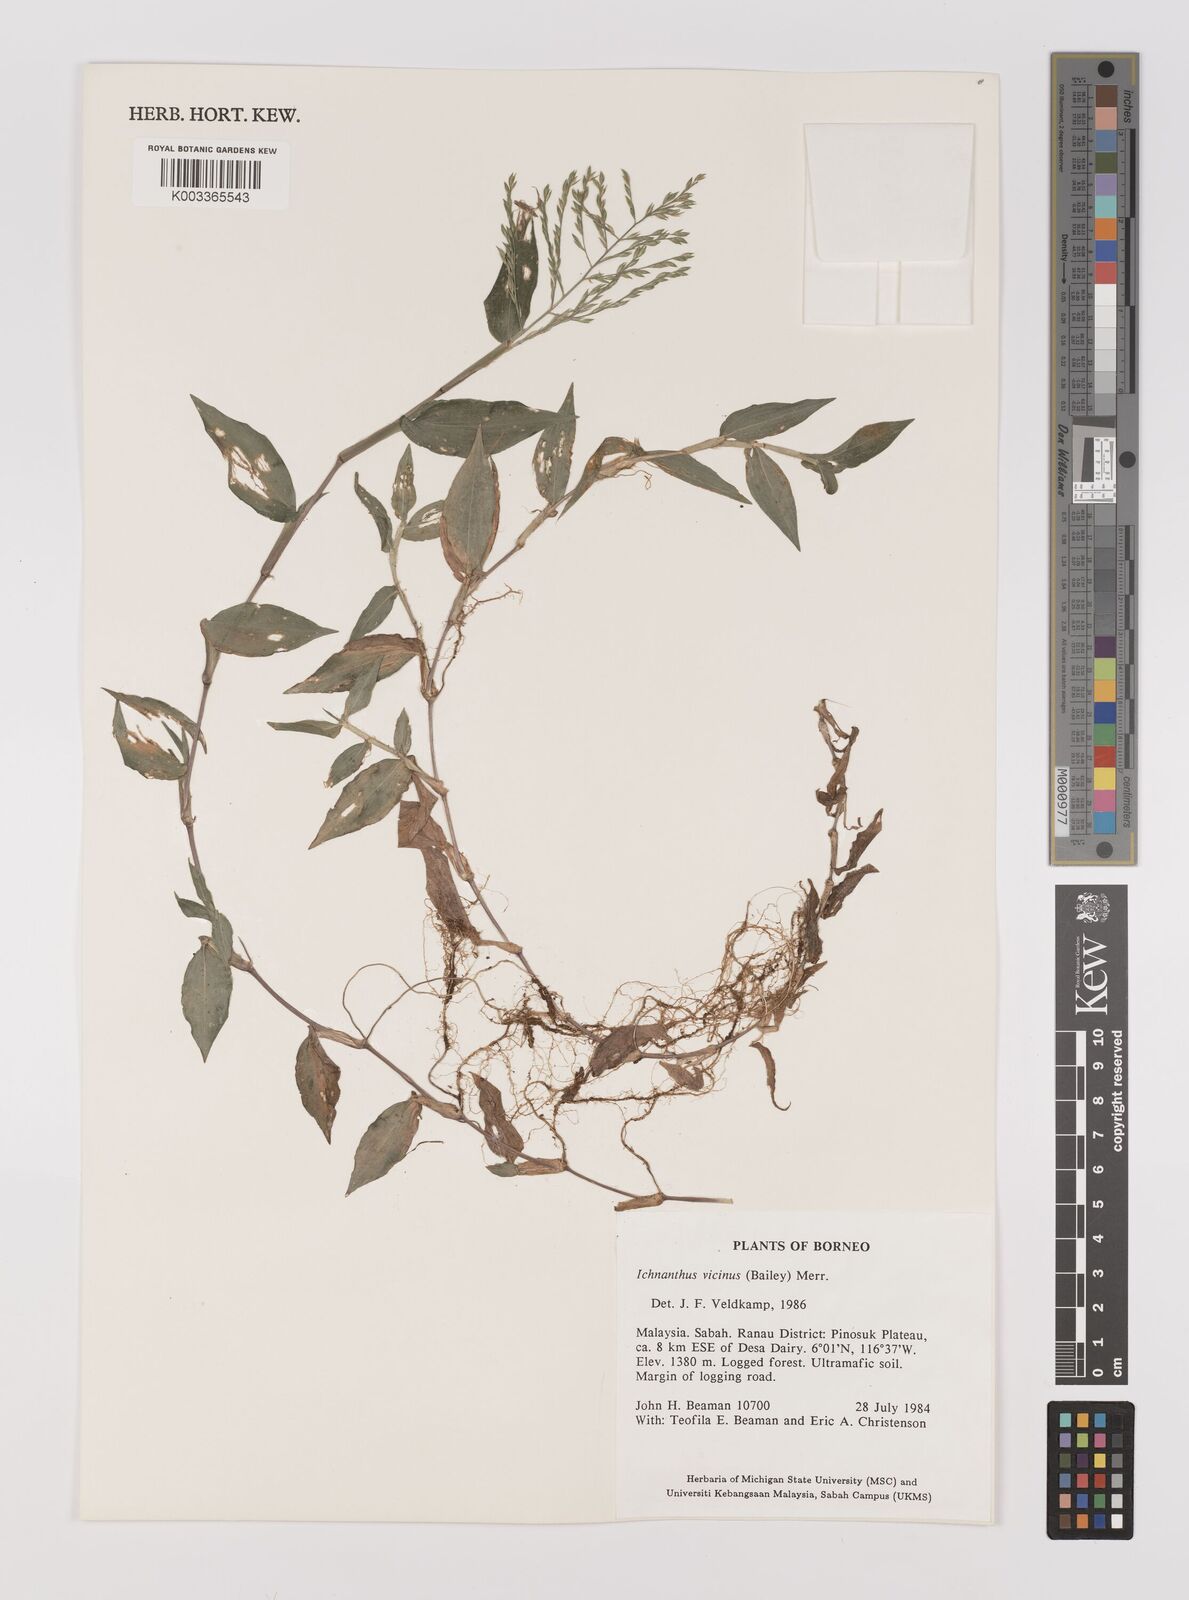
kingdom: Plantae
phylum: Tracheophyta
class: Liliopsida
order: Poales
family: Poaceae
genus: Ichnanthus
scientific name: Ichnanthus pallens
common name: Water grass
